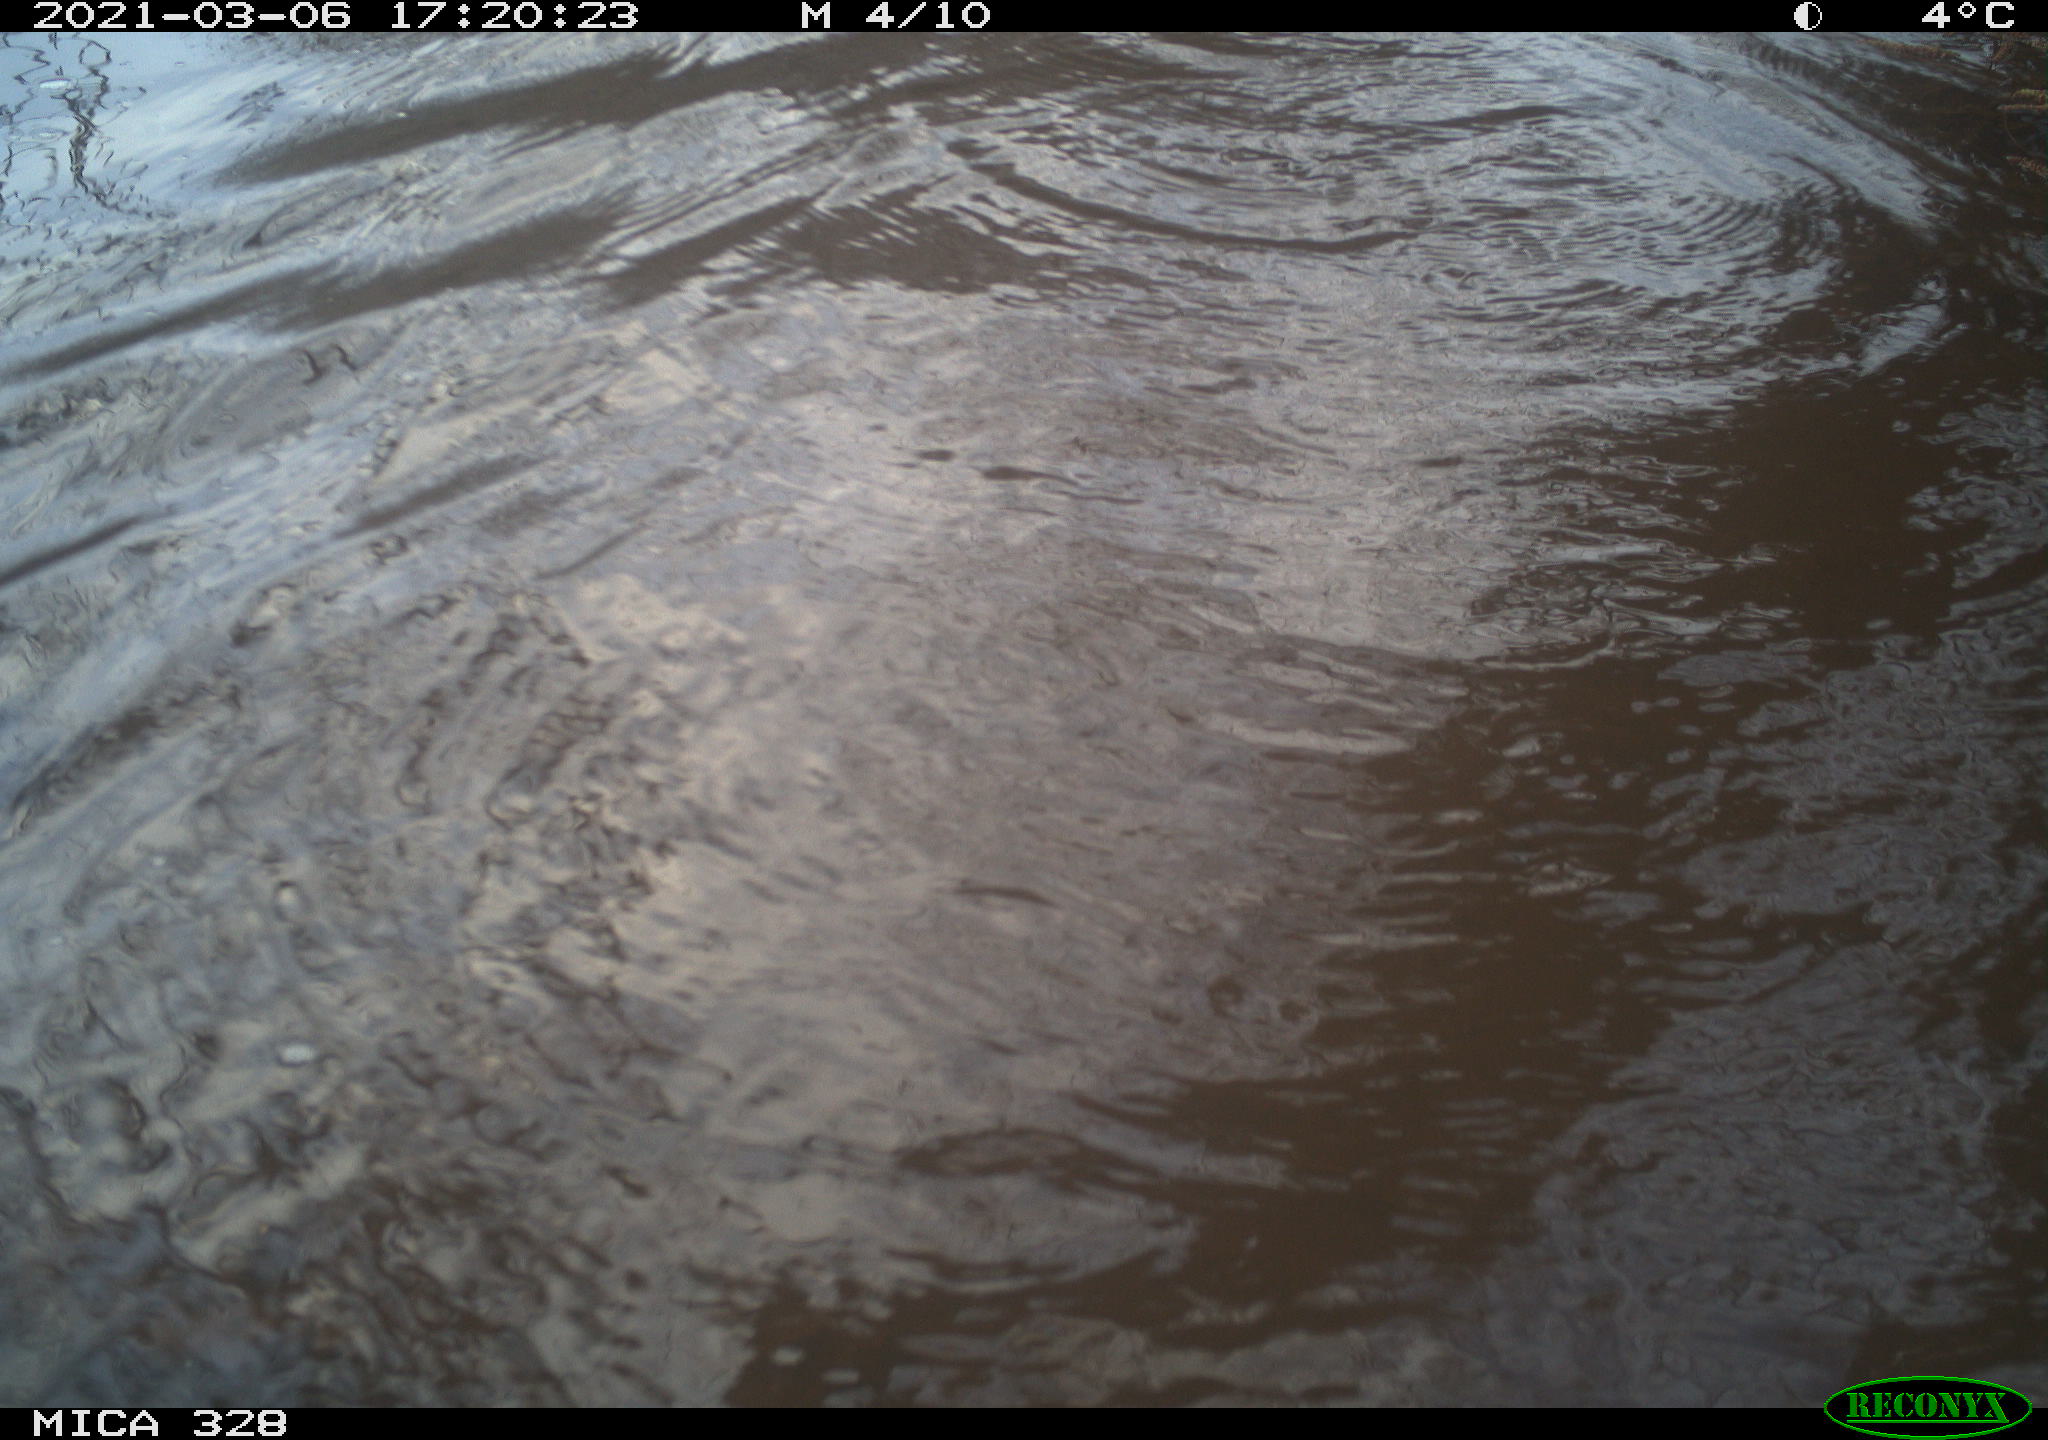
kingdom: Animalia
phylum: Chordata
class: Mammalia
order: Rodentia
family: Cricetidae
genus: Ondatra
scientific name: Ondatra zibethicus
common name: Muskrat
